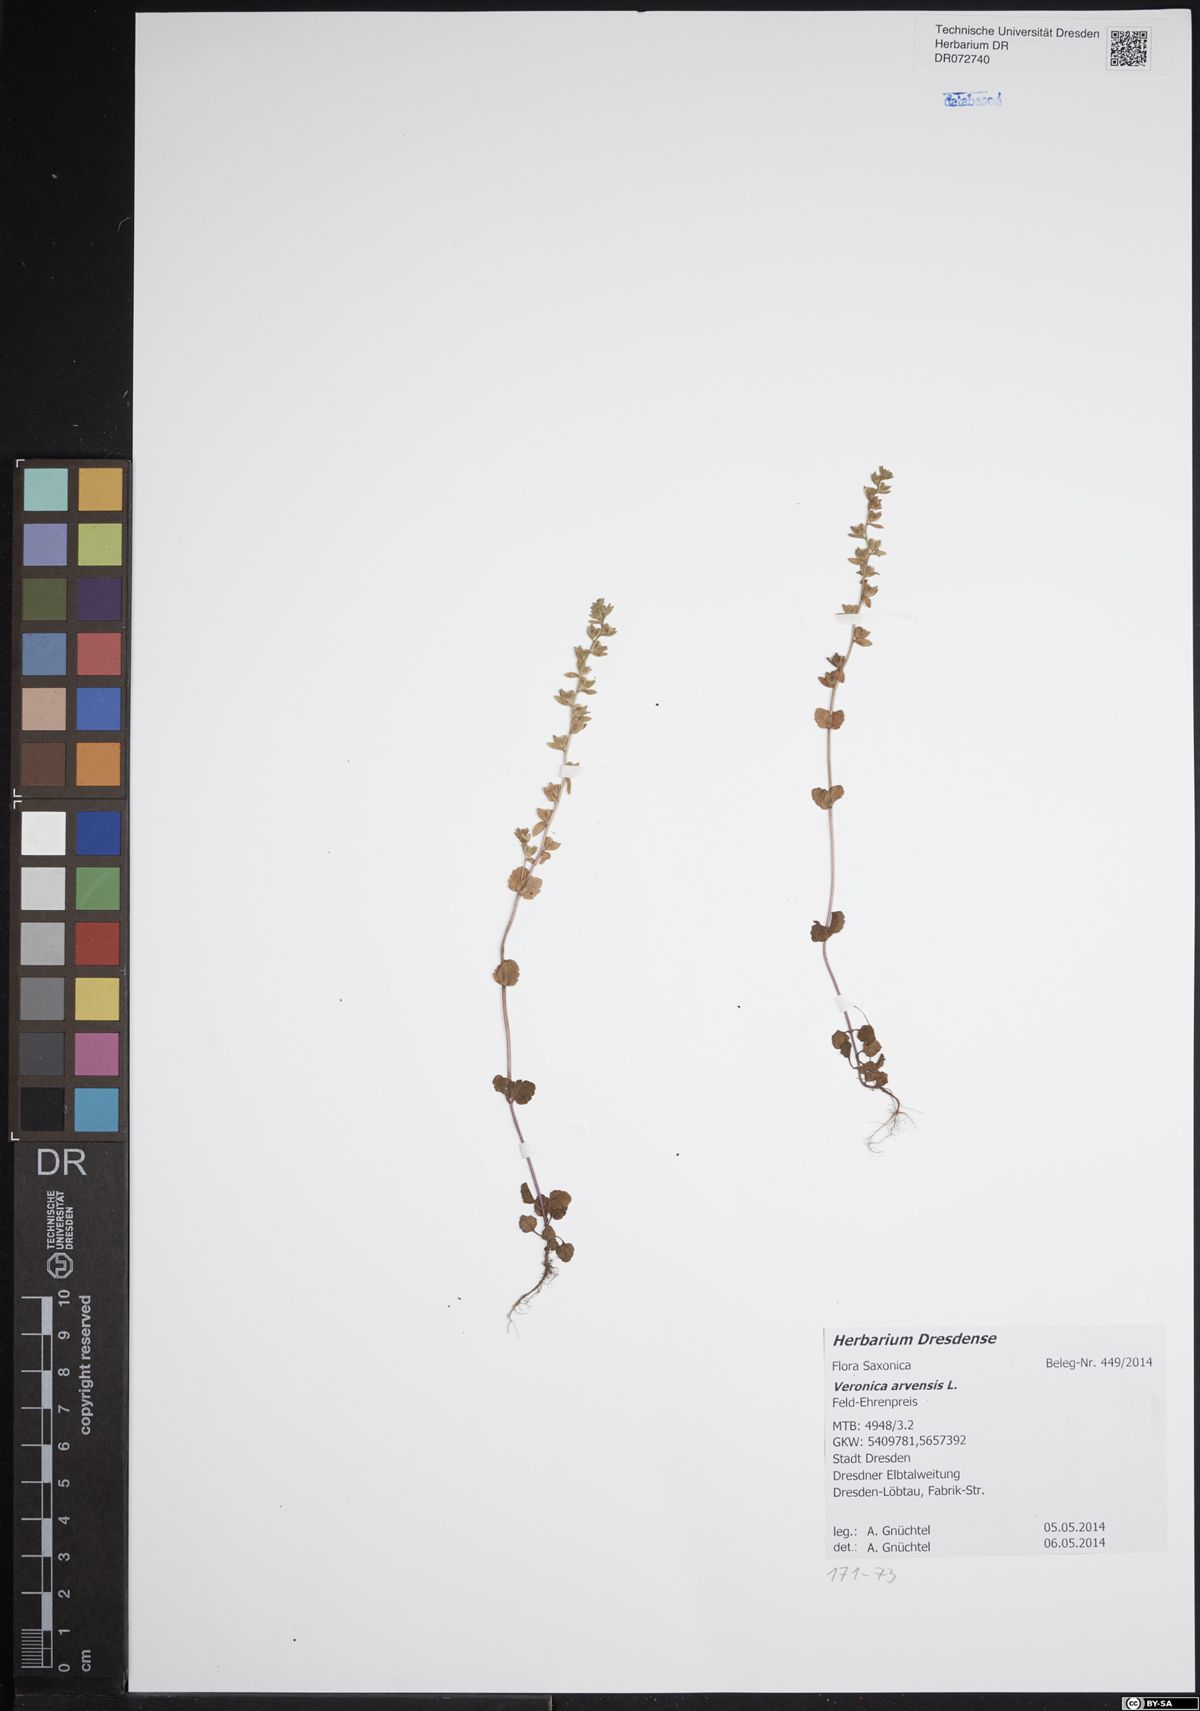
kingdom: Plantae
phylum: Tracheophyta
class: Magnoliopsida
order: Lamiales
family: Plantaginaceae
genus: Veronica
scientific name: Veronica arvensis
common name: Corn speedwell
